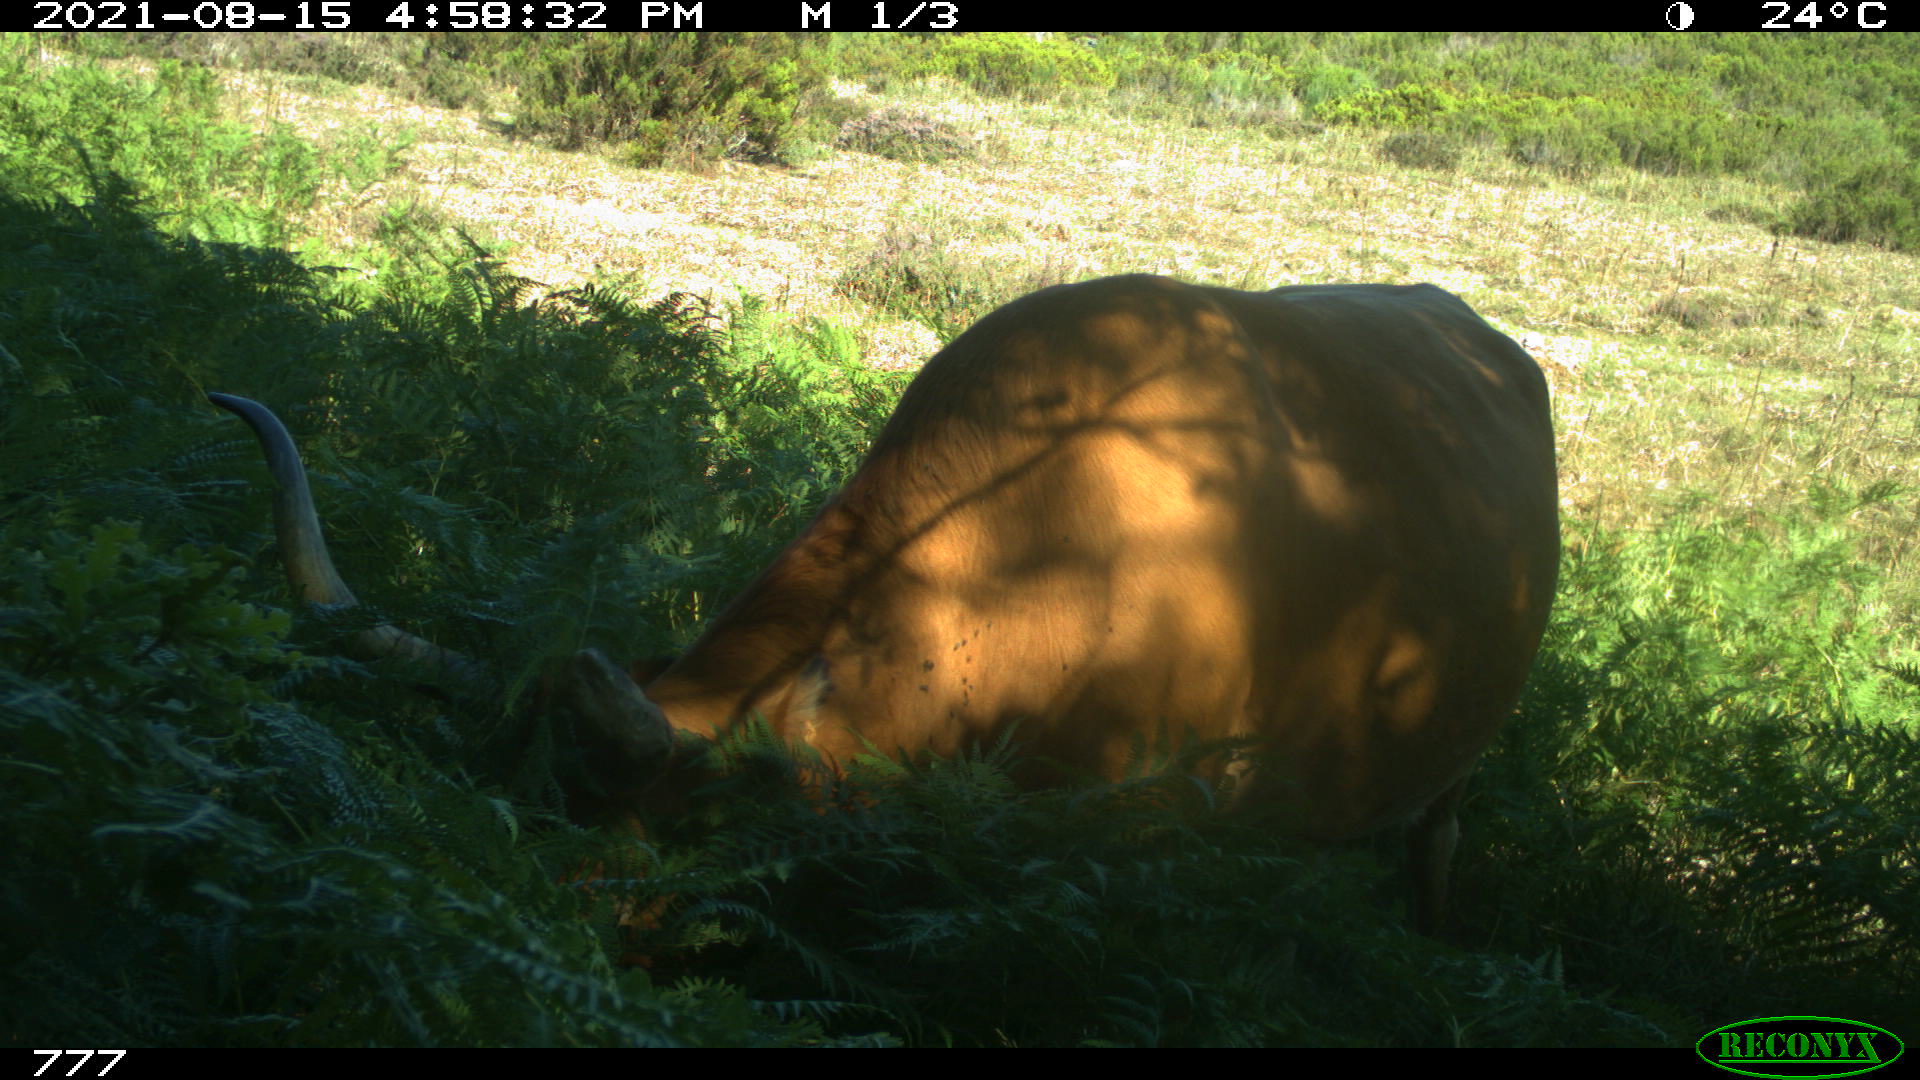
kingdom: Animalia
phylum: Chordata
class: Mammalia
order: Artiodactyla
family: Bovidae
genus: Bos
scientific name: Bos taurus
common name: Domesticated cattle
